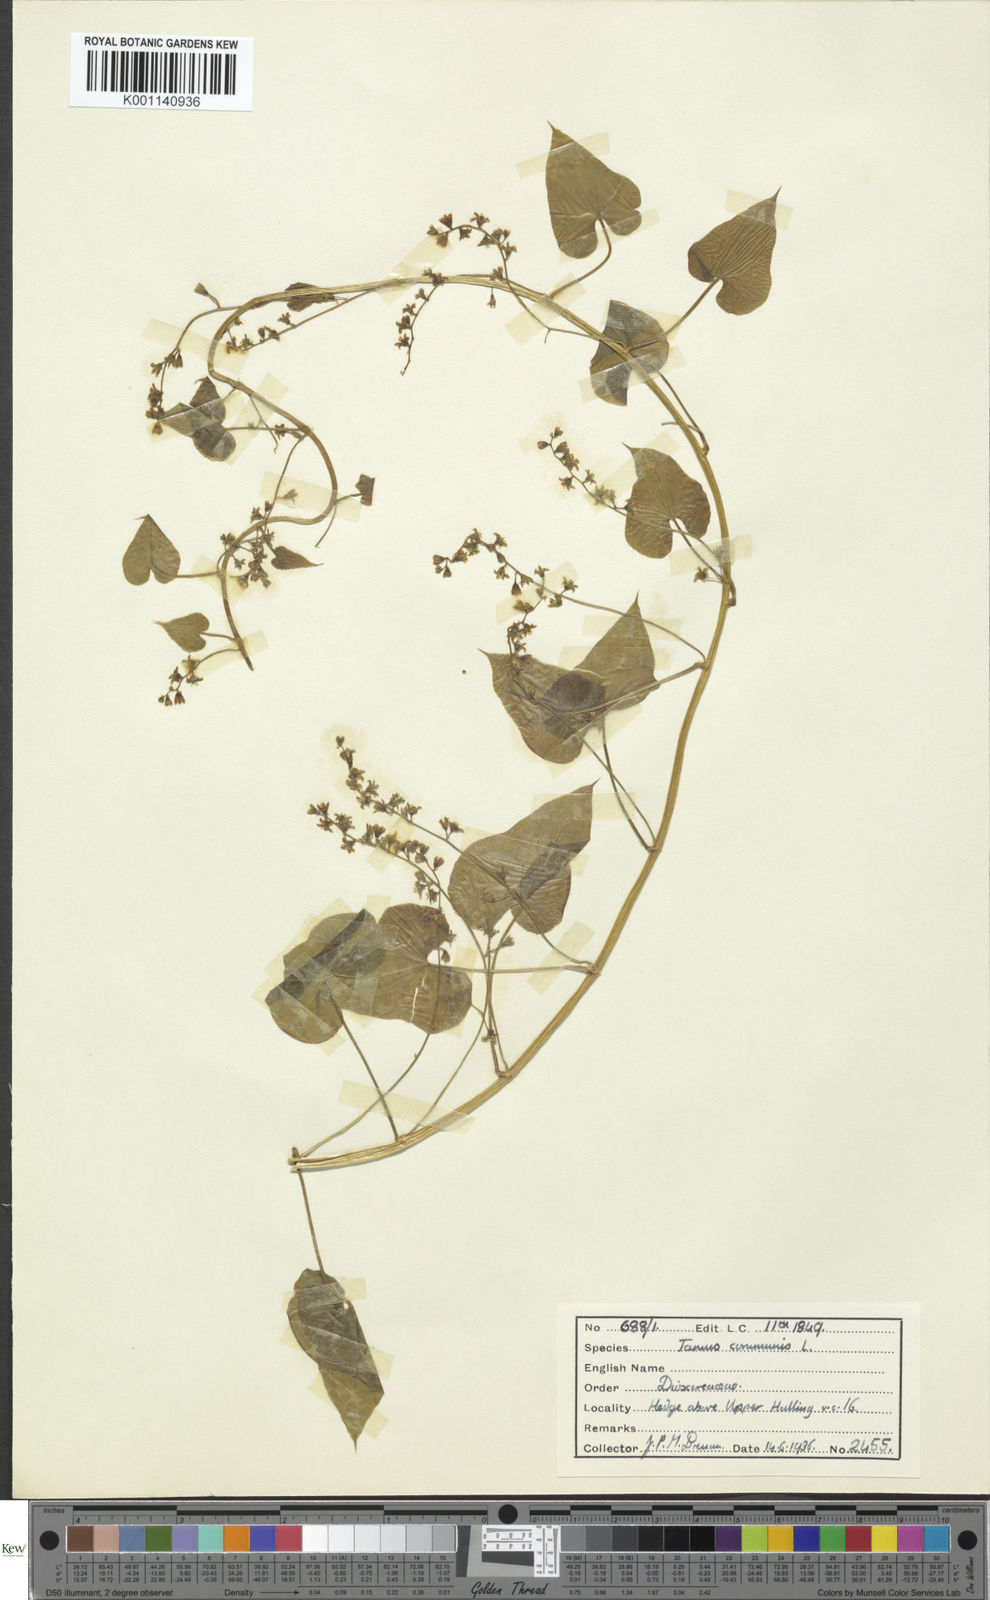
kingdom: Plantae
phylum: Tracheophyta
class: Liliopsida
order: Dioscoreales
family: Dioscoreaceae
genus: Dioscorea
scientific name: Dioscorea communis
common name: Black-bindweed
